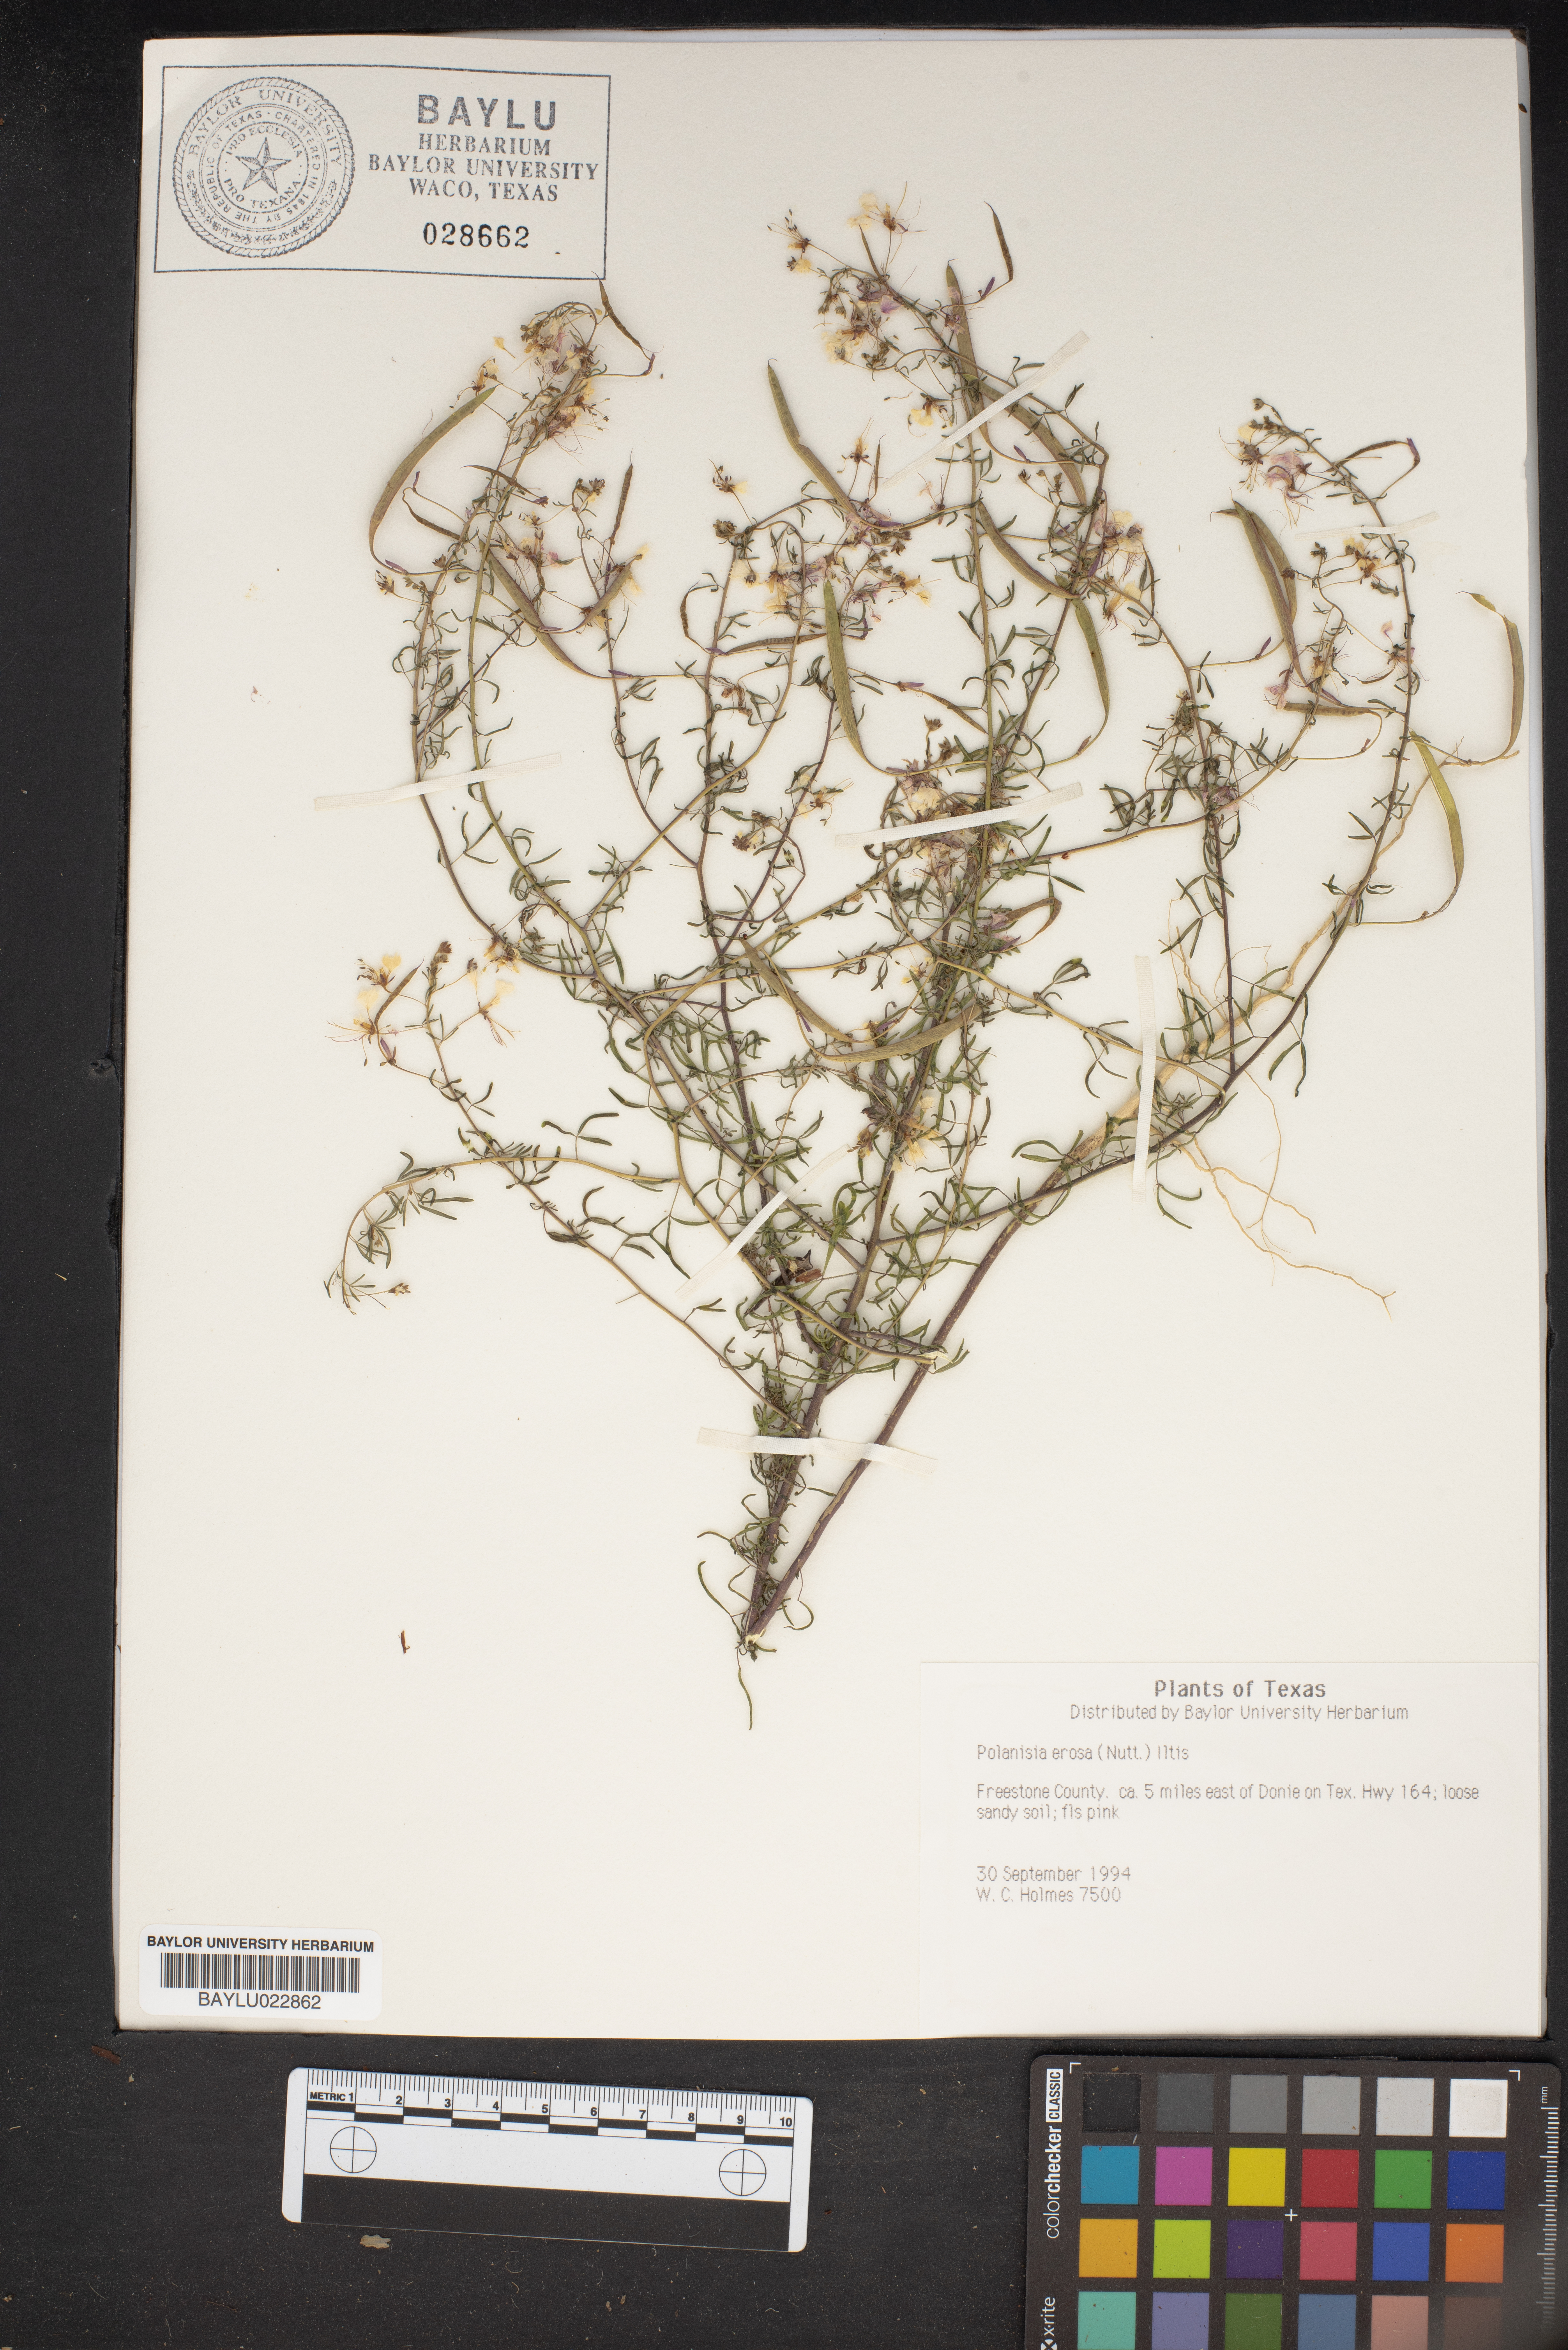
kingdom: Plantae
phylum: Tracheophyta
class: Magnoliopsida
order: Brassicales
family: Cleomaceae
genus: Polanisia
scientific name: Polanisia erosa
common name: Large clammyweed
